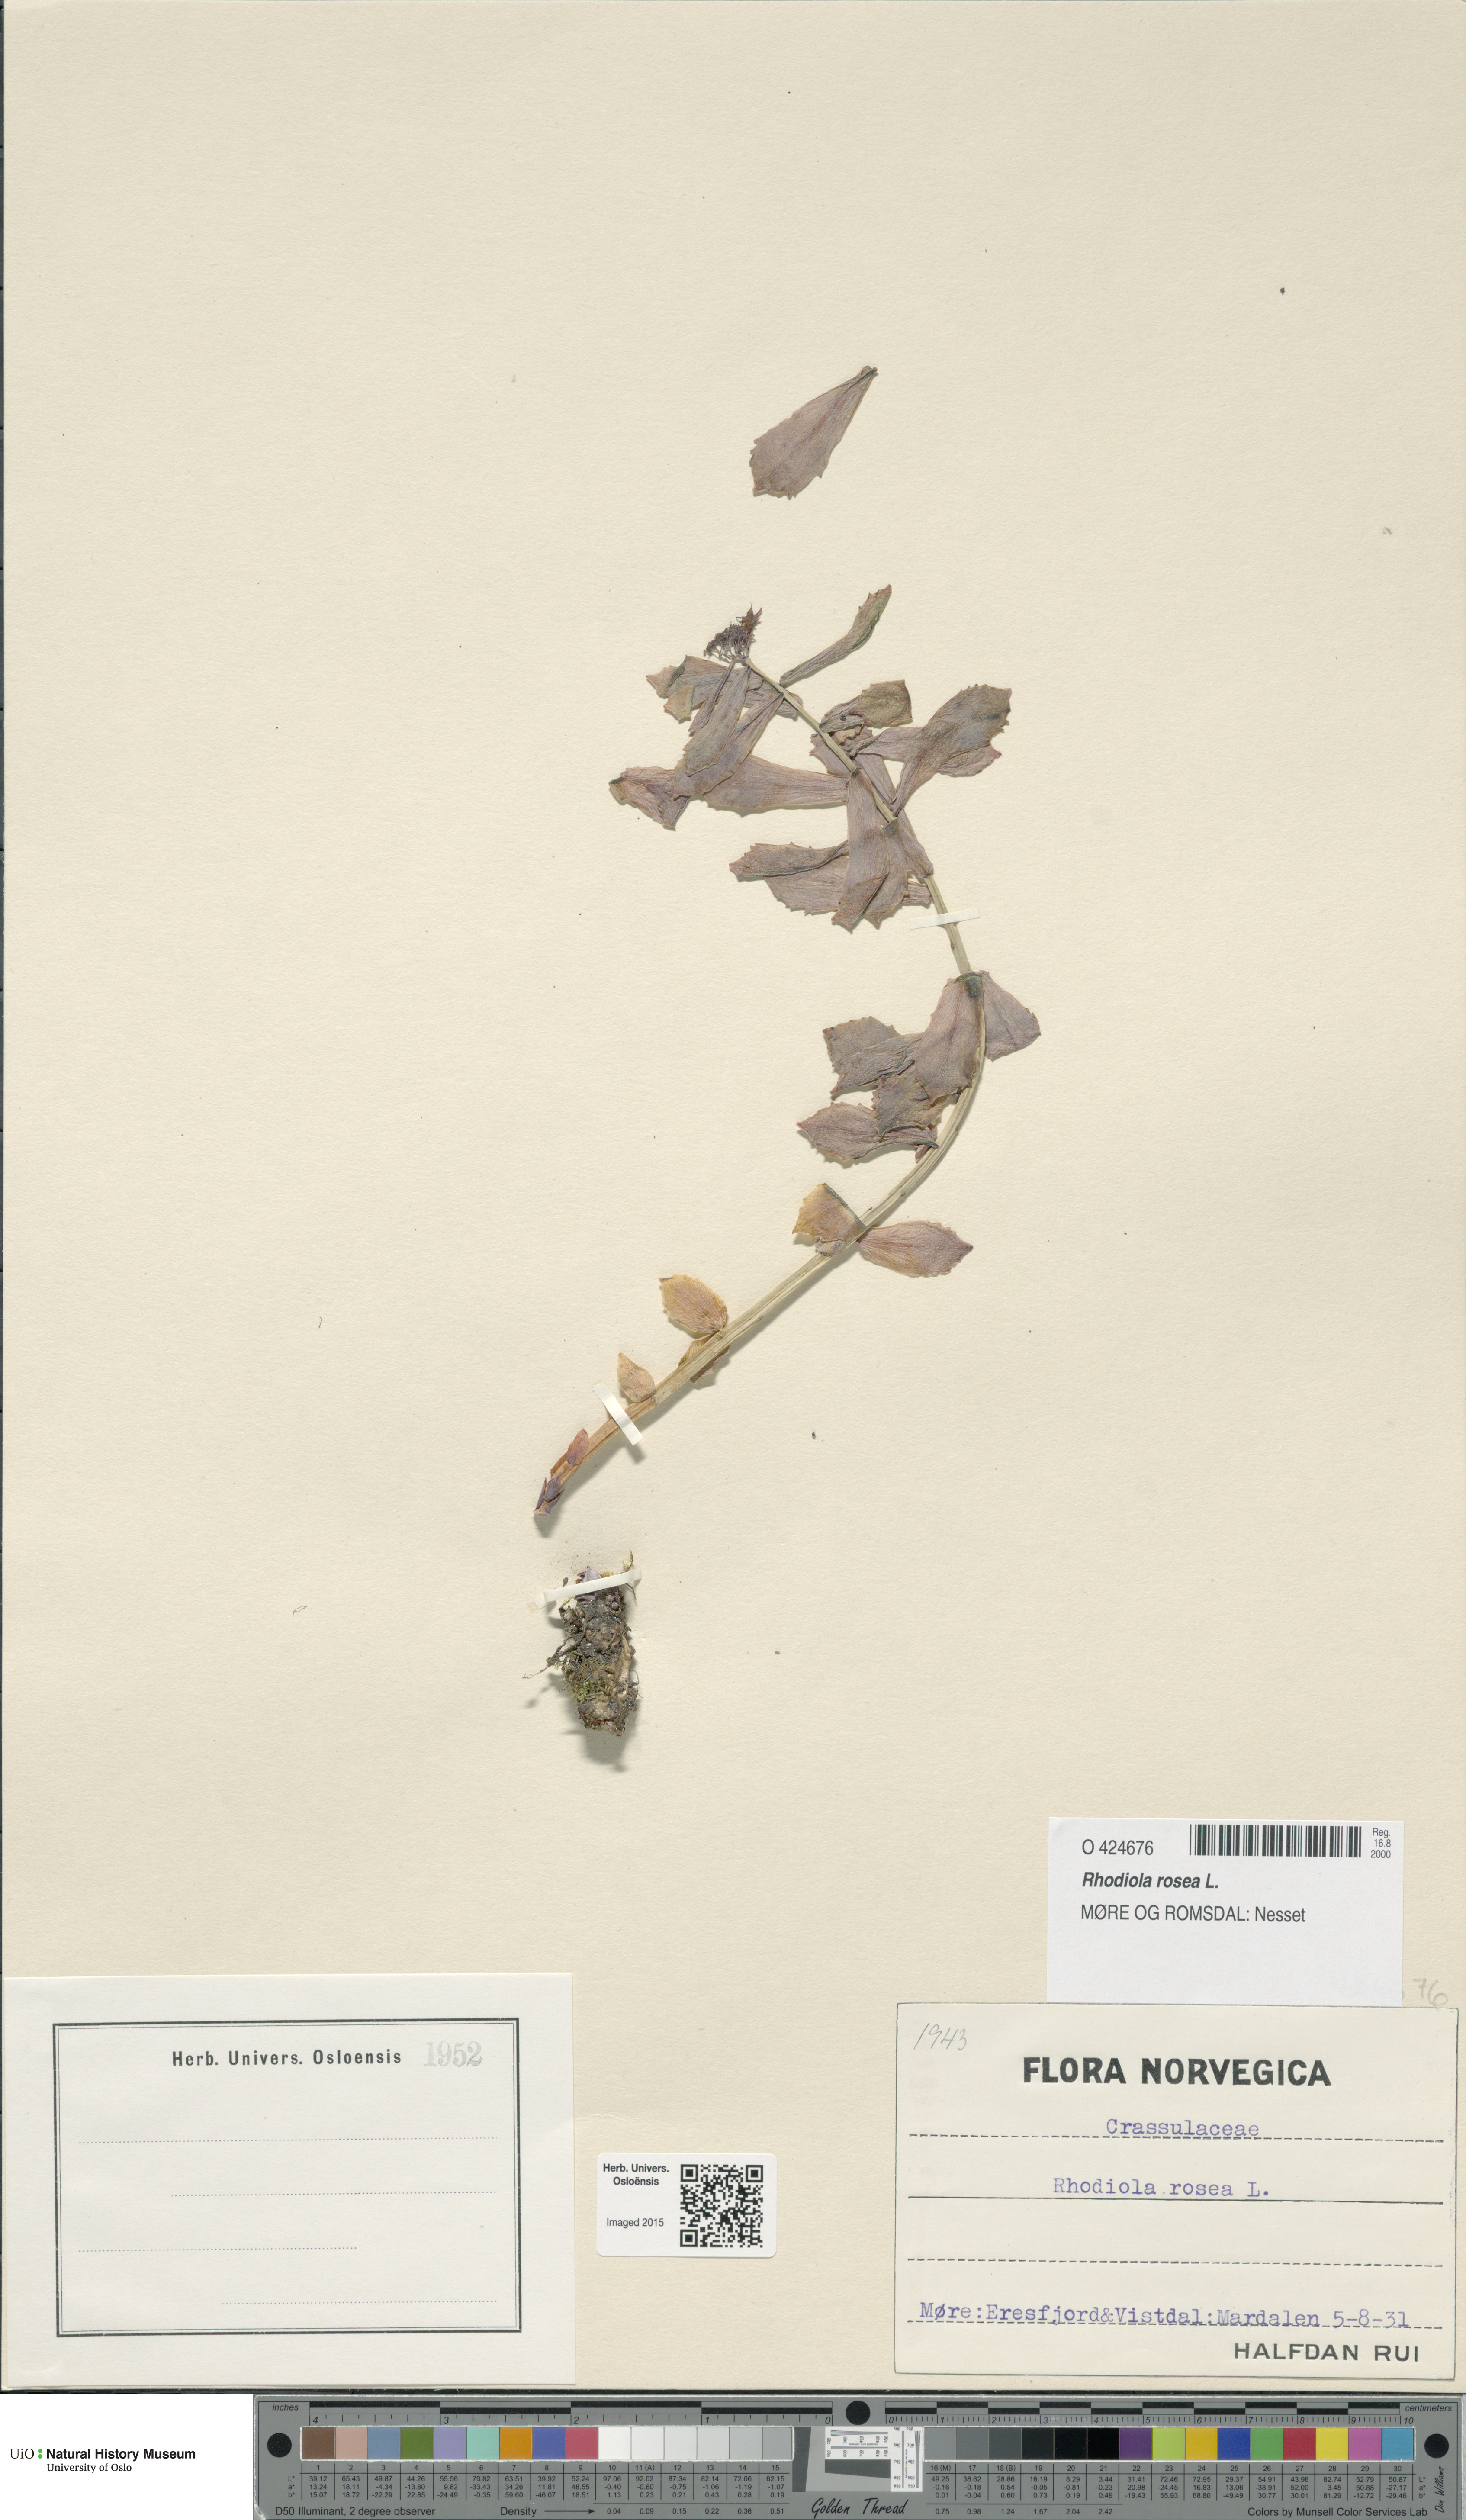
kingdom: Plantae
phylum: Tracheophyta
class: Magnoliopsida
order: Saxifragales
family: Crassulaceae
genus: Rhodiola
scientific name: Rhodiola rosea
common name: Roseroot
